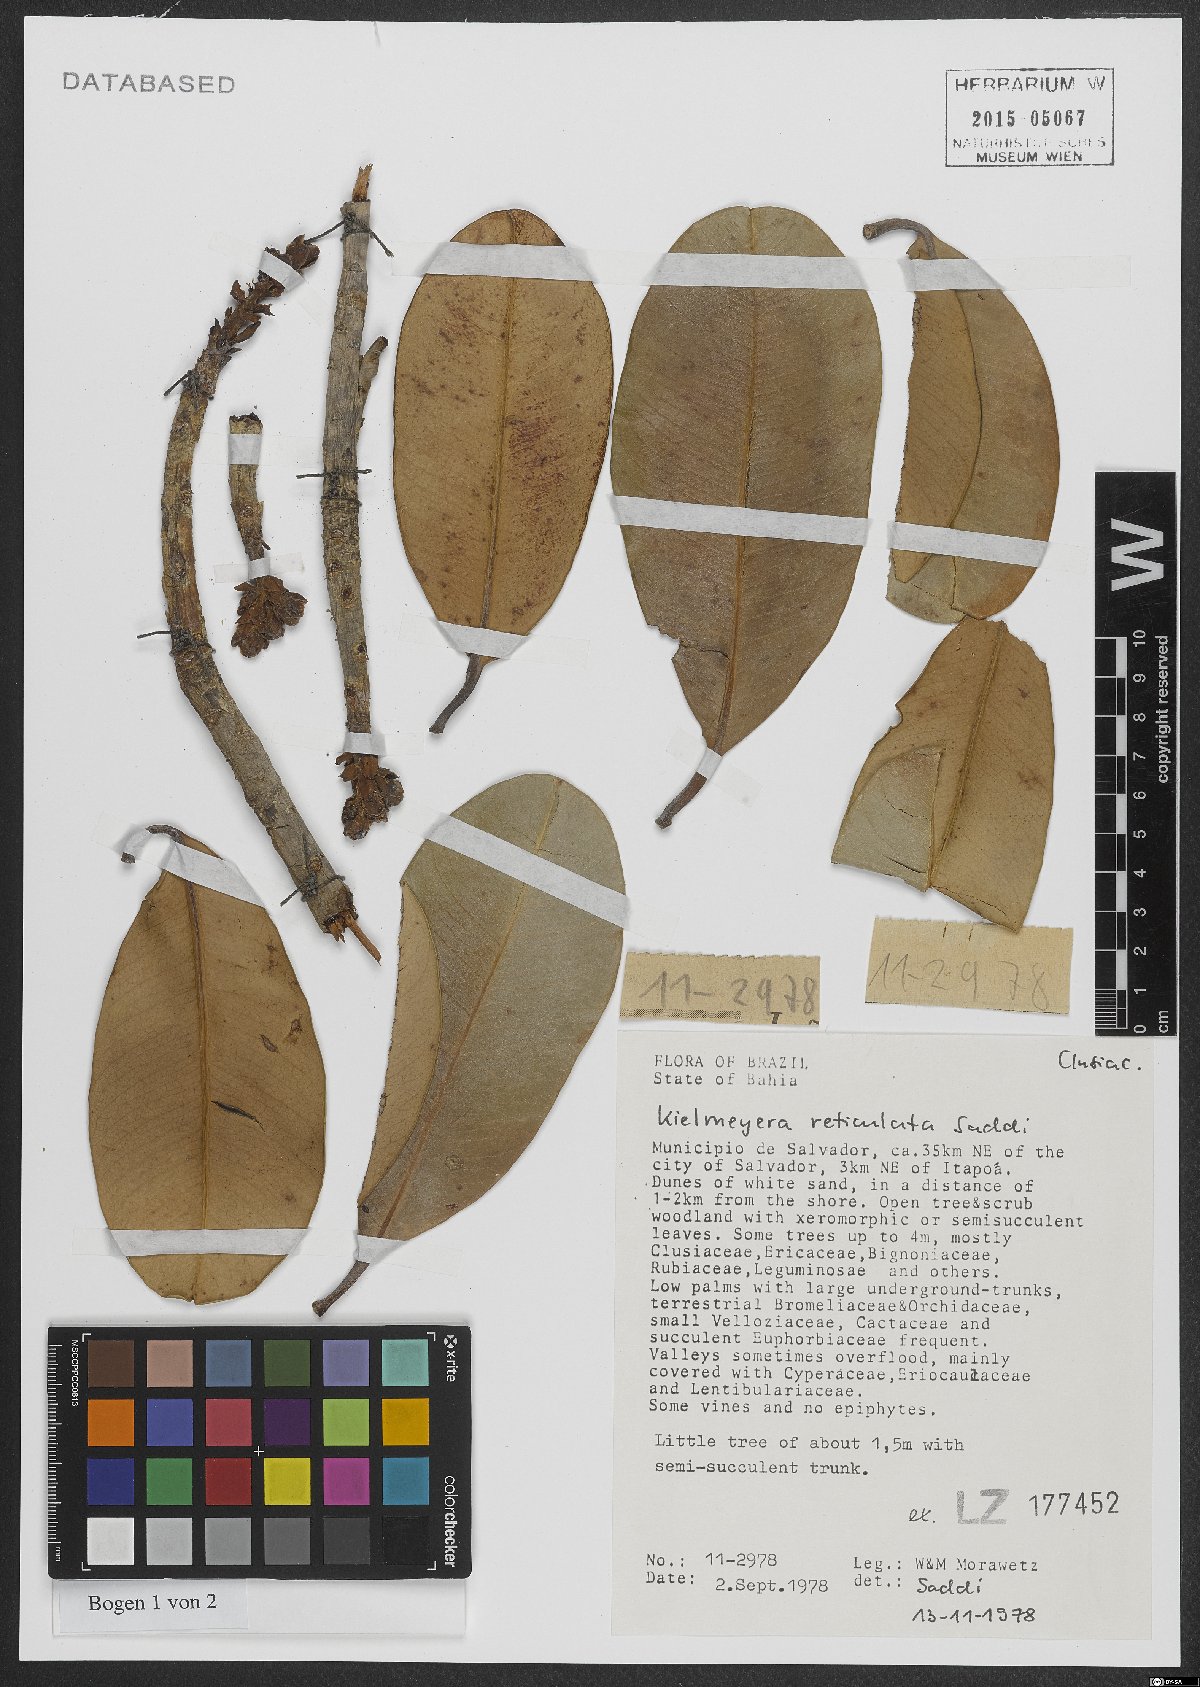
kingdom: Plantae
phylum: Tracheophyta
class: Magnoliopsida
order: Malpighiales
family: Calophyllaceae
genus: Kielmeyera
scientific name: Kielmeyera reticulata
